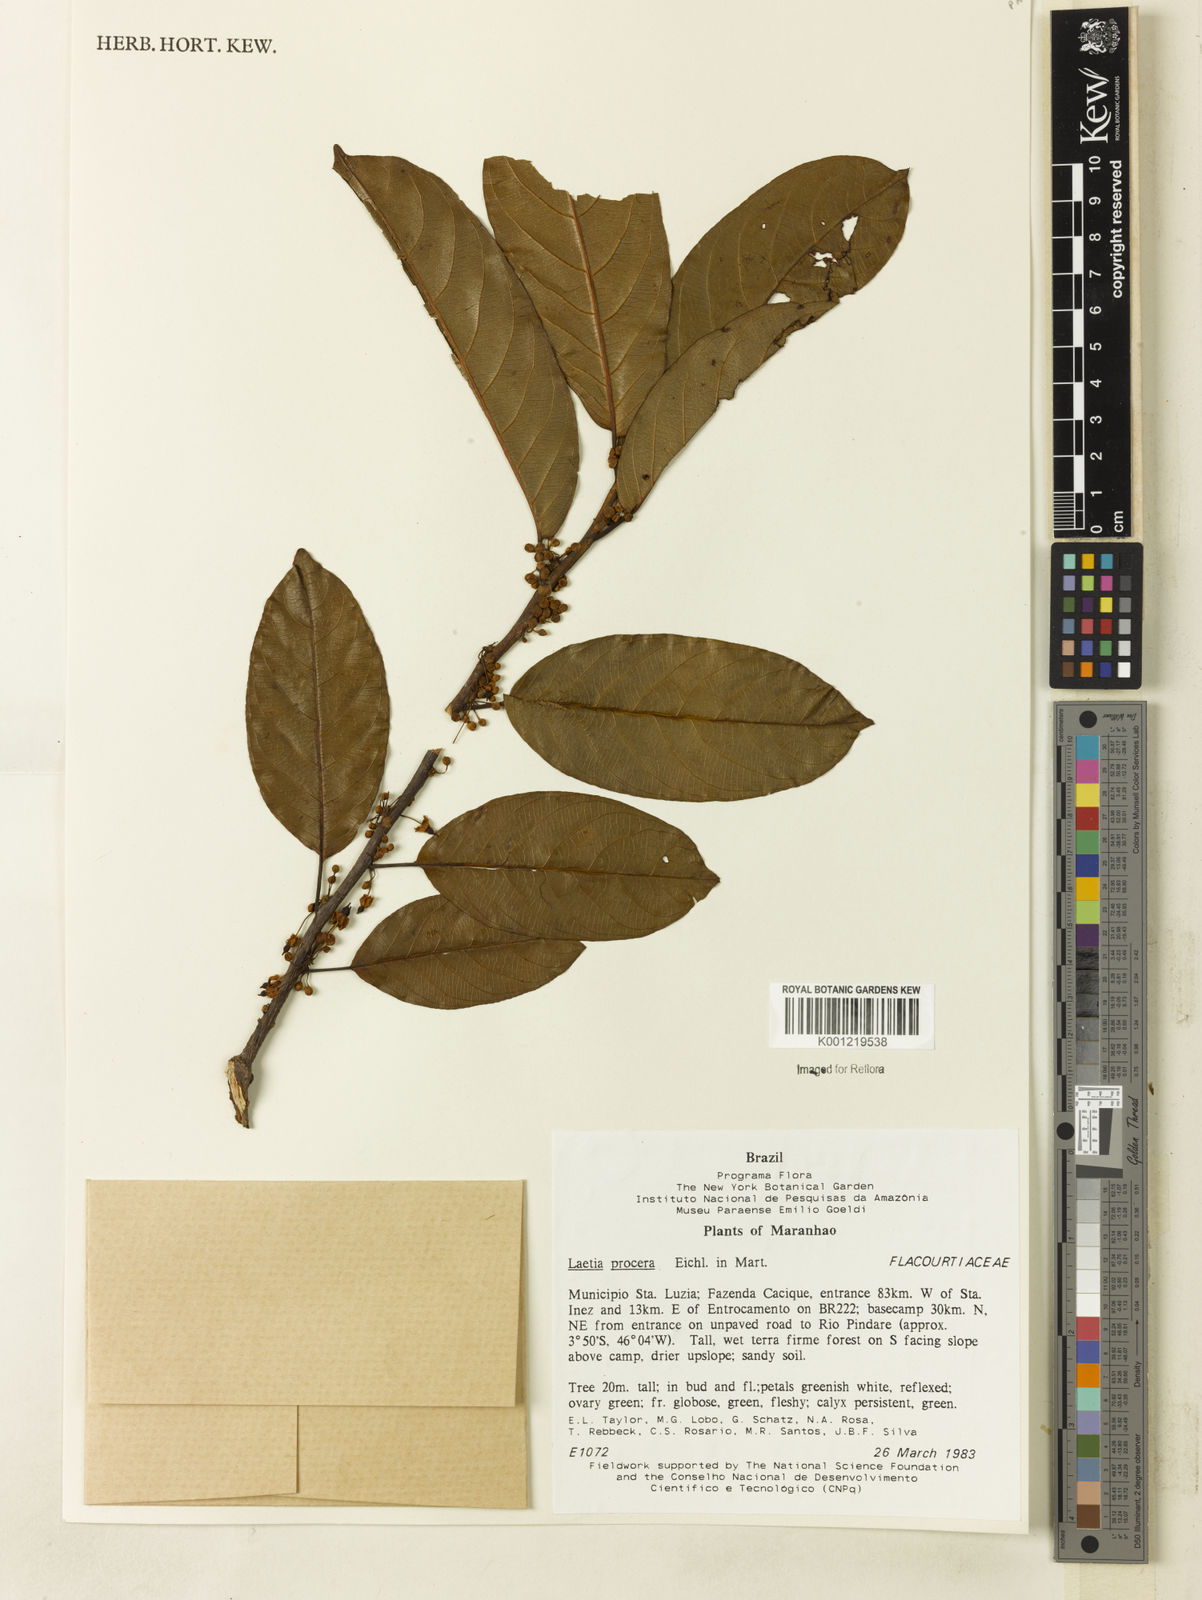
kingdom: Plantae
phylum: Tracheophyta
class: Magnoliopsida
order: Malpighiales
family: Salicaceae
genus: Casearia
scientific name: Casearia bicolor
